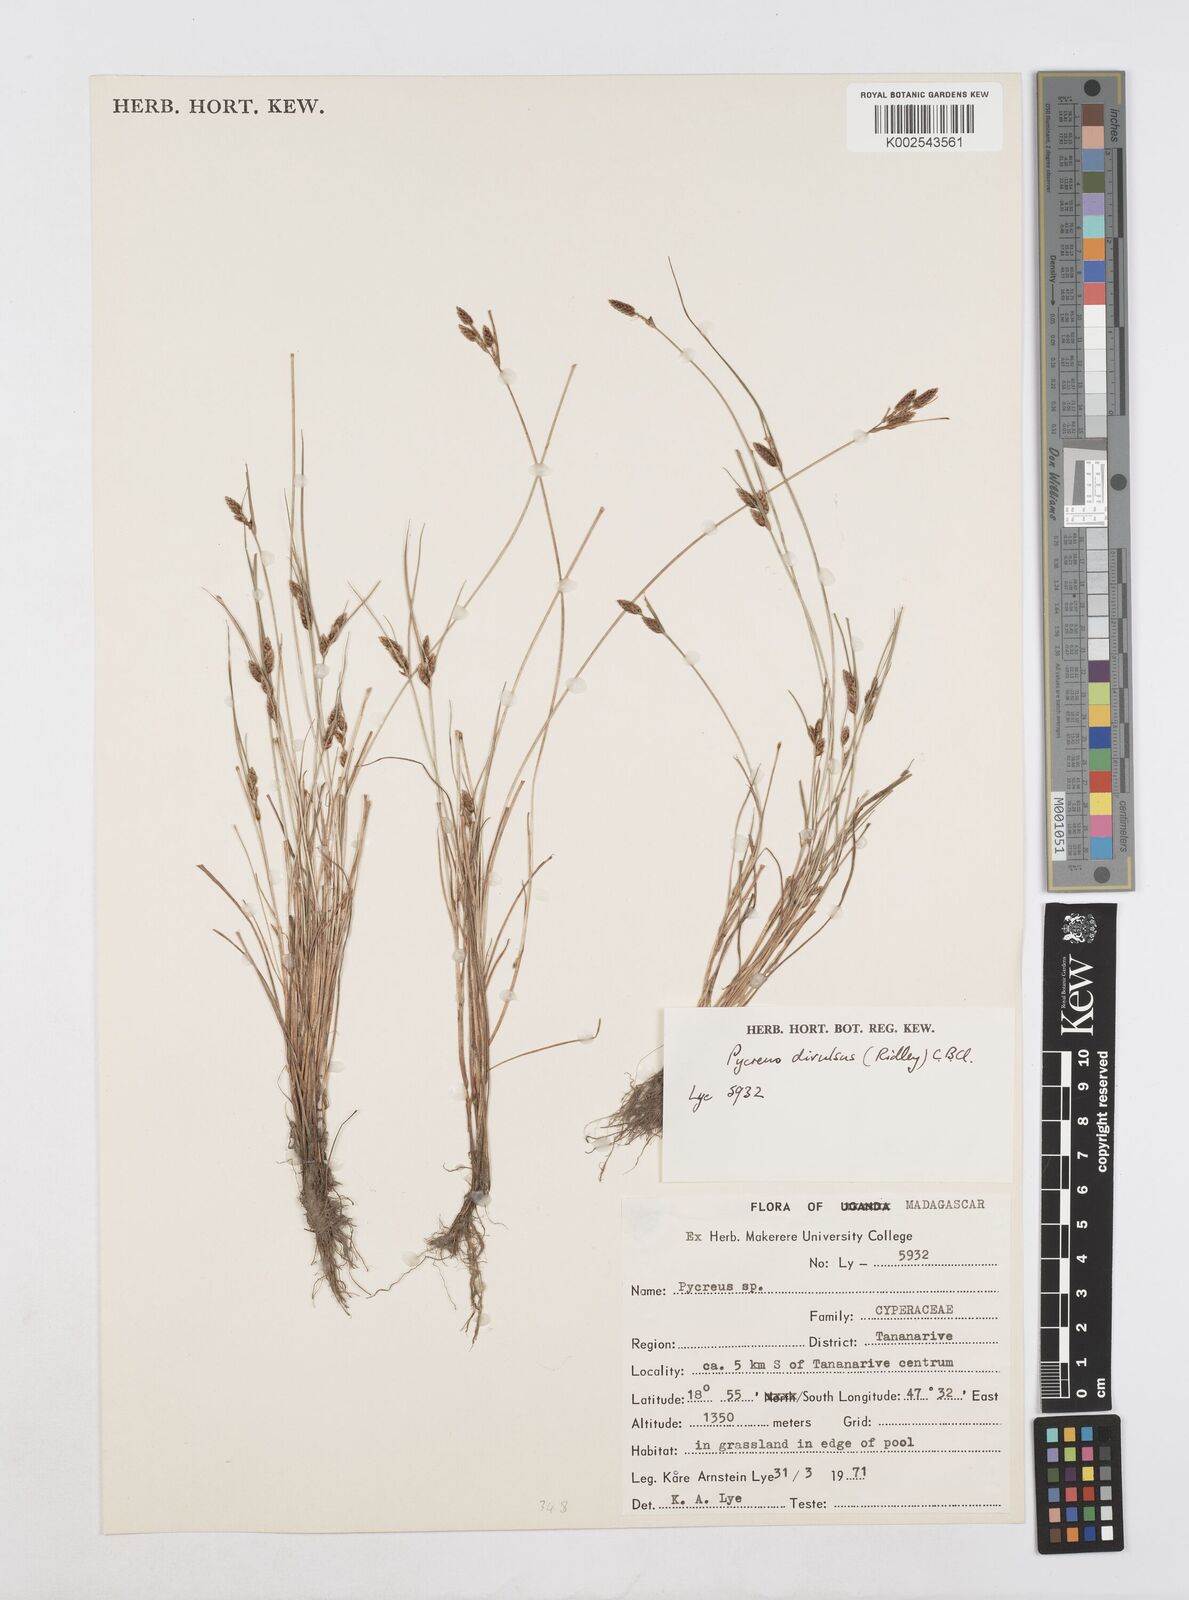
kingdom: Plantae
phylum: Tracheophyta
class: Liliopsida
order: Poales
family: Cyperaceae
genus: Cyperus
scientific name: Cyperus divulsus
